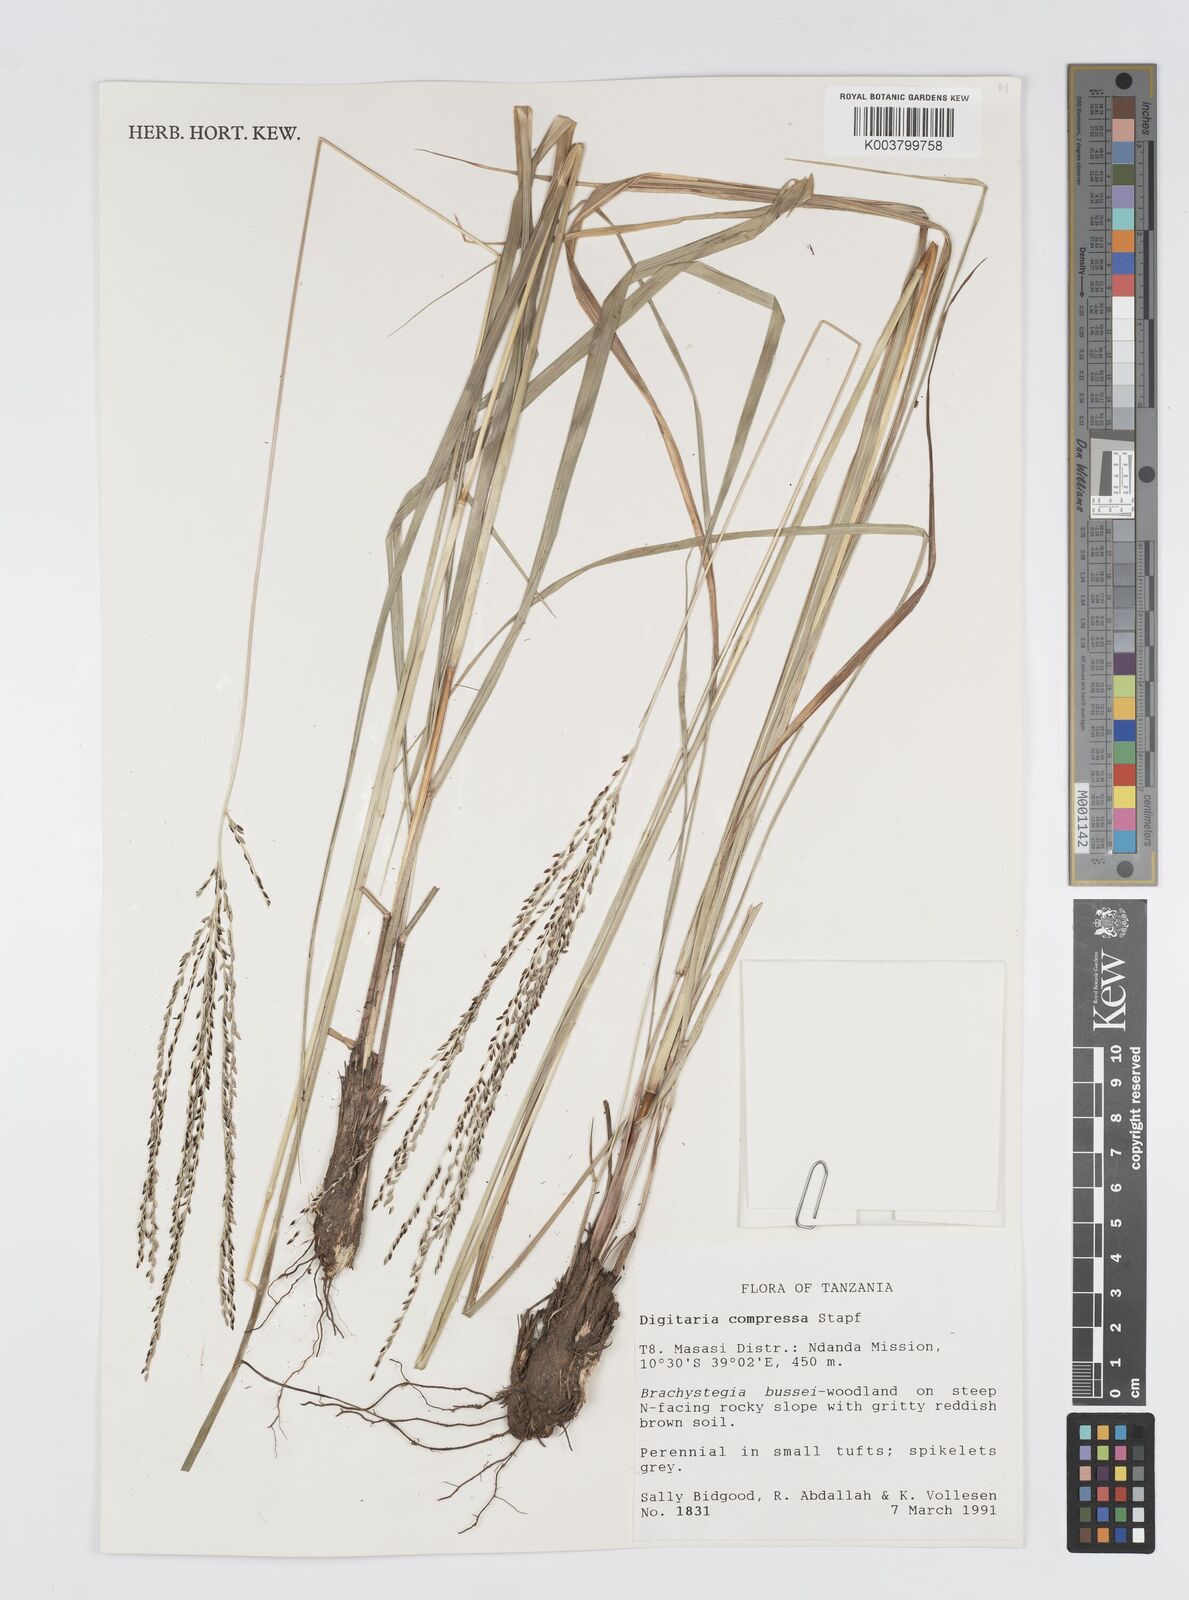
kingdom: Plantae
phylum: Tracheophyta
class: Liliopsida
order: Poales
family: Poaceae
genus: Digitaria
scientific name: Digitaria compressa
